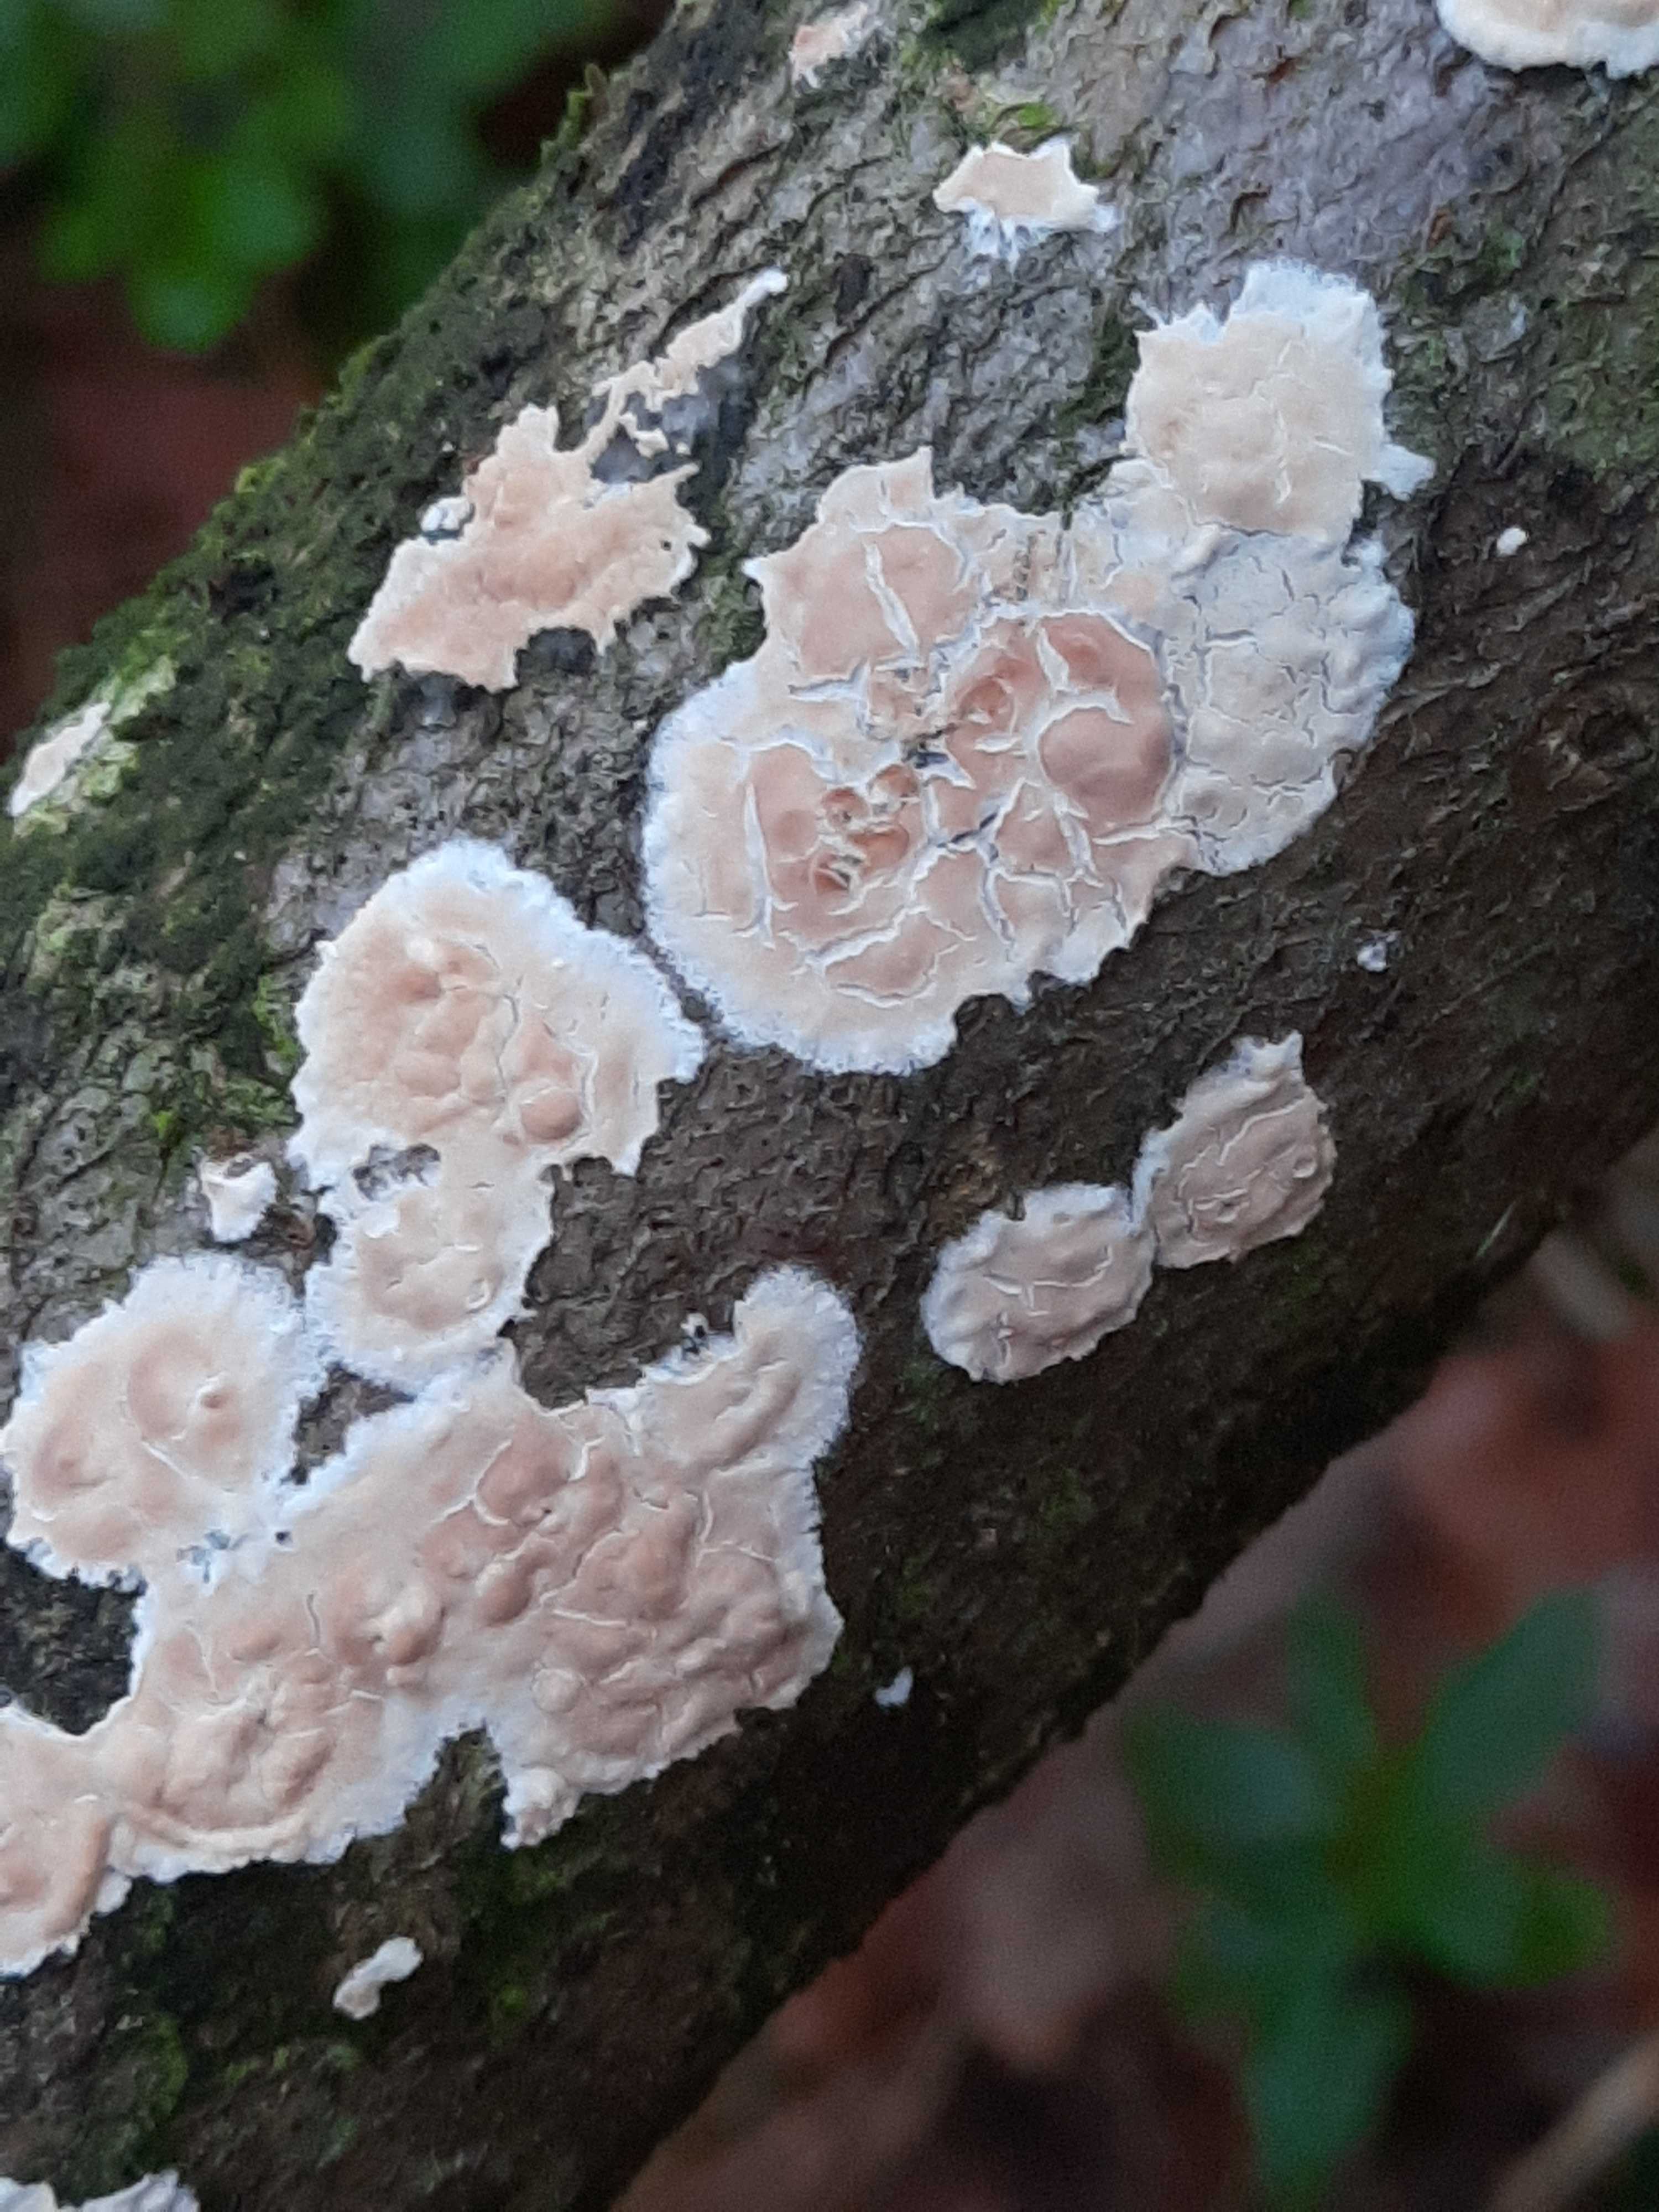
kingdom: Fungi
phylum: Basidiomycota
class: Agaricomycetes
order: Agaricales
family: Physalacriaceae
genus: Cylindrobasidium
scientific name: Cylindrobasidium evolvens
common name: sprækkehinde
